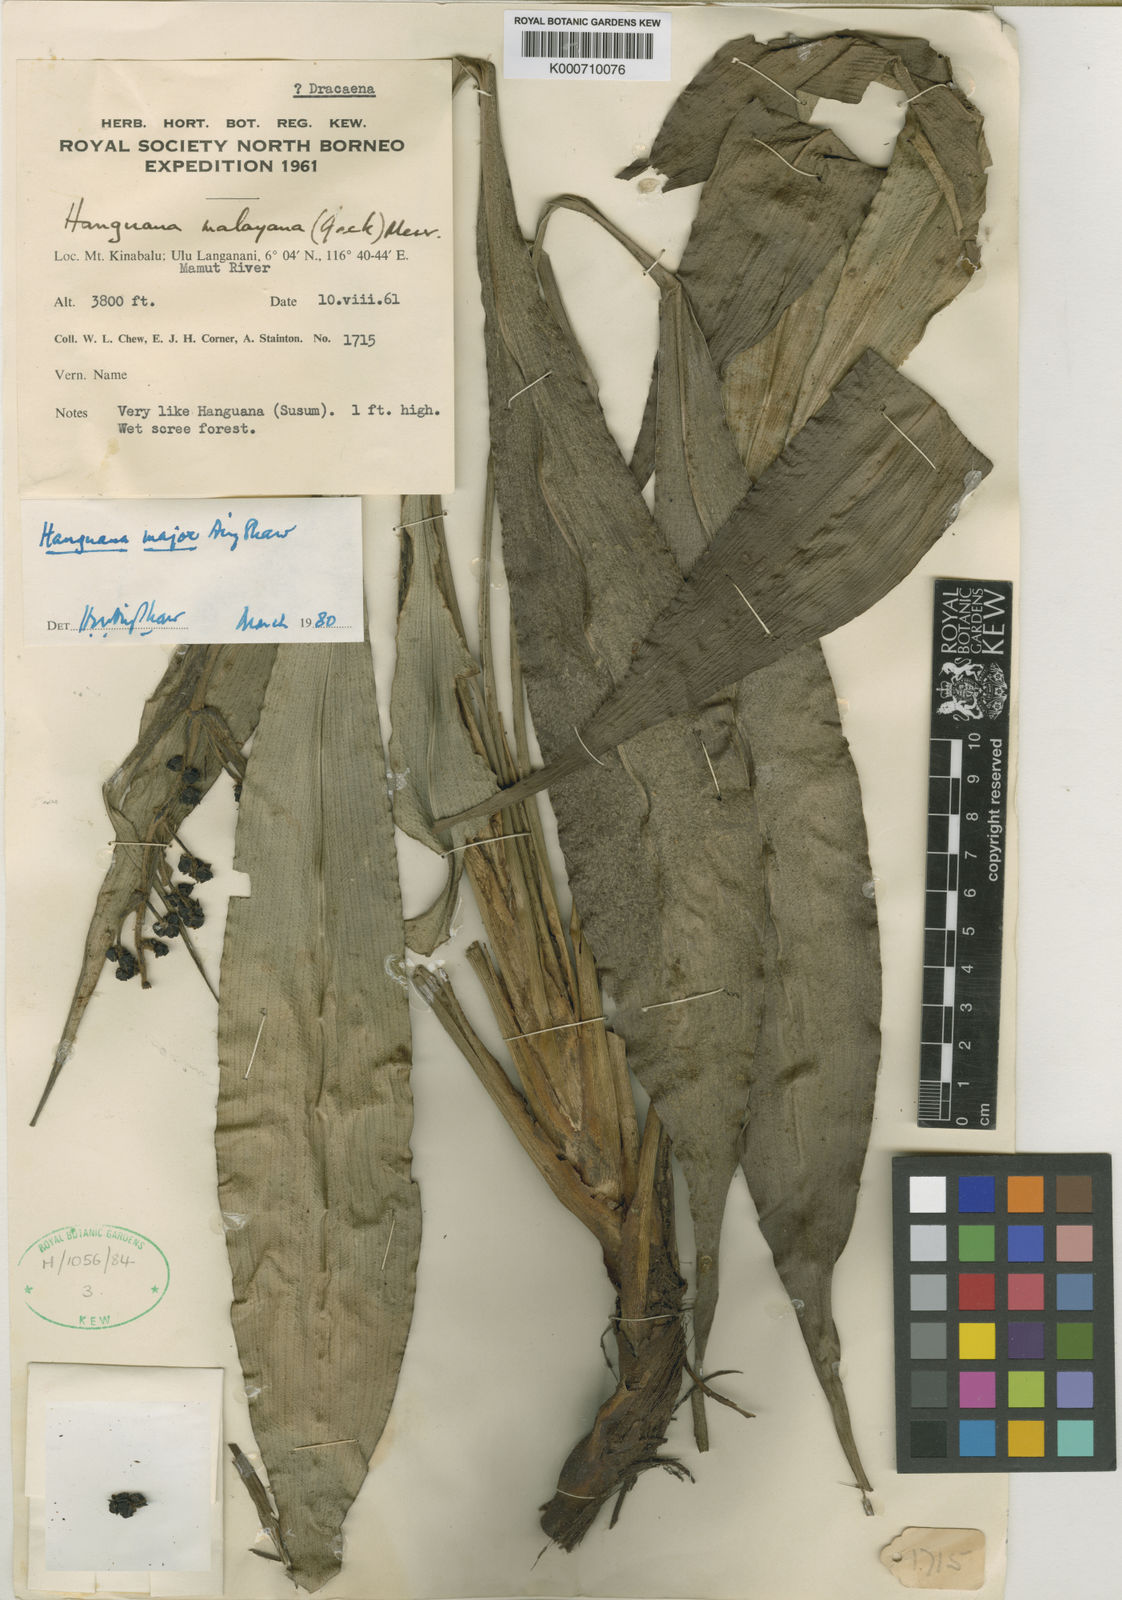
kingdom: Plantae
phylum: Tracheophyta
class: Liliopsida
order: Commelinales
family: Hanguanaceae
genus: Hanguana
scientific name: Hanguana major
